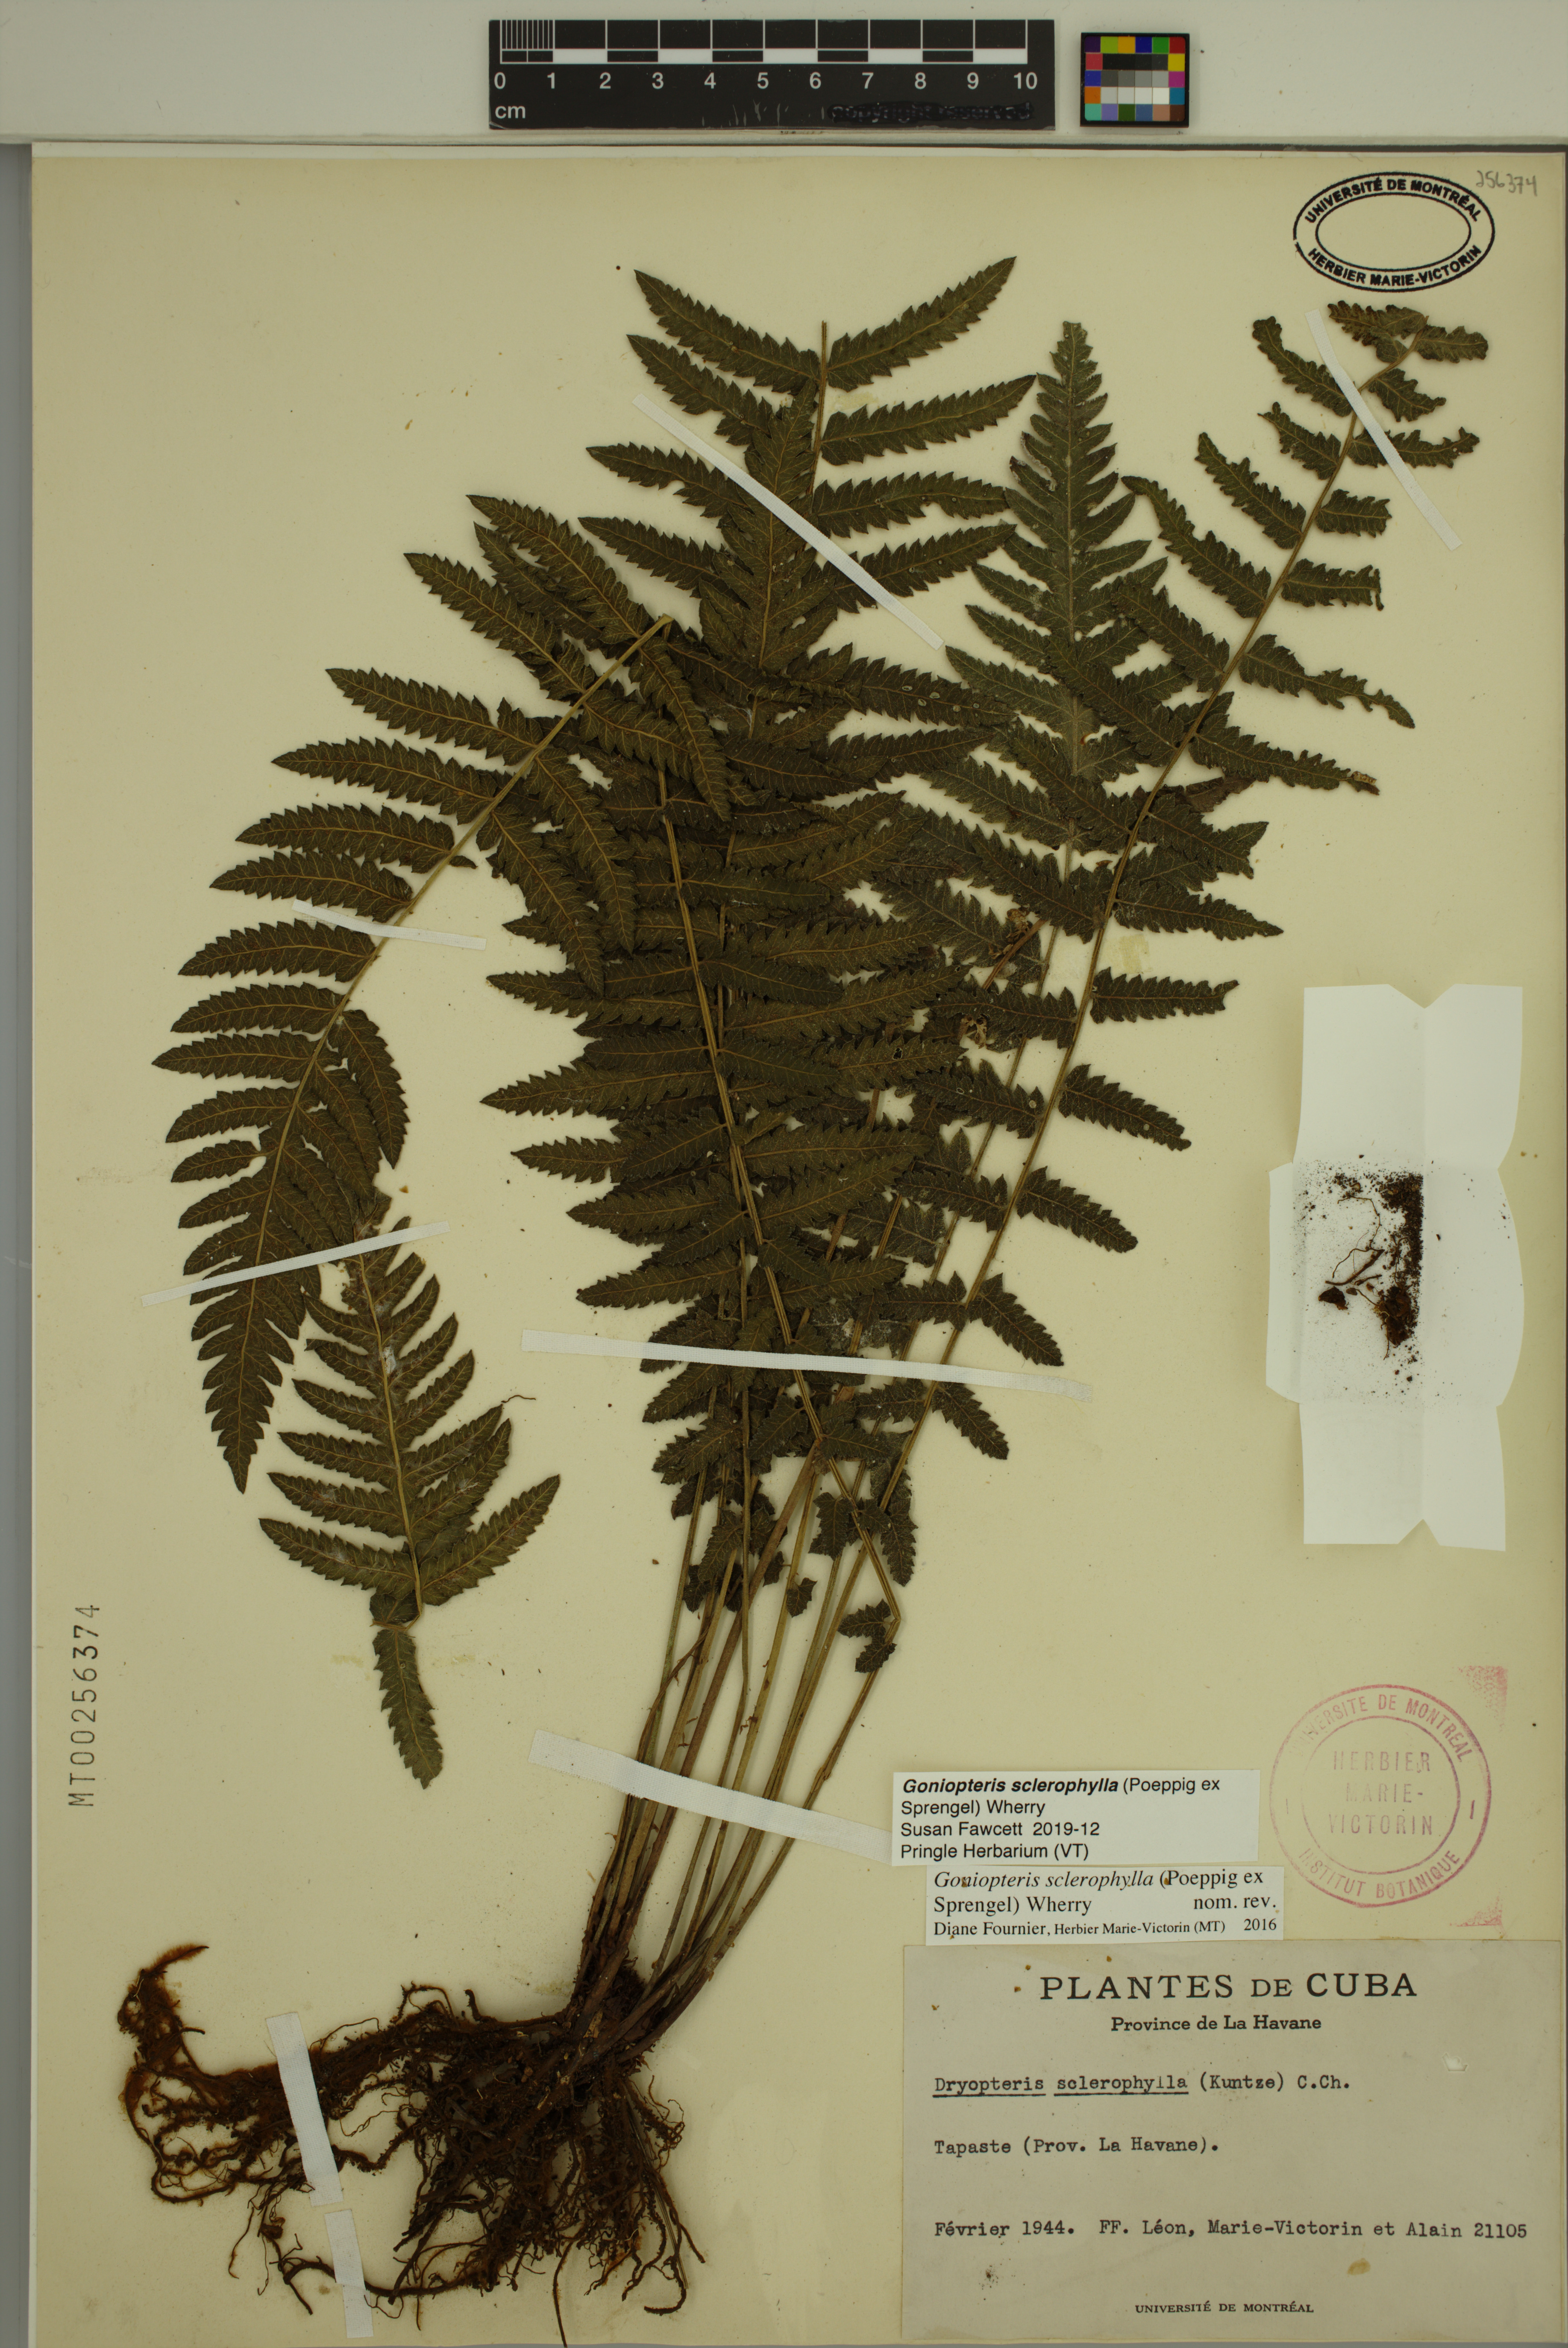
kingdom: Plantae
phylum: Tracheophyta
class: Polypodiopsida
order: Polypodiales
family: Thelypteridaceae
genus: Goniopteris
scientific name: Goniopteris sclerophylla
